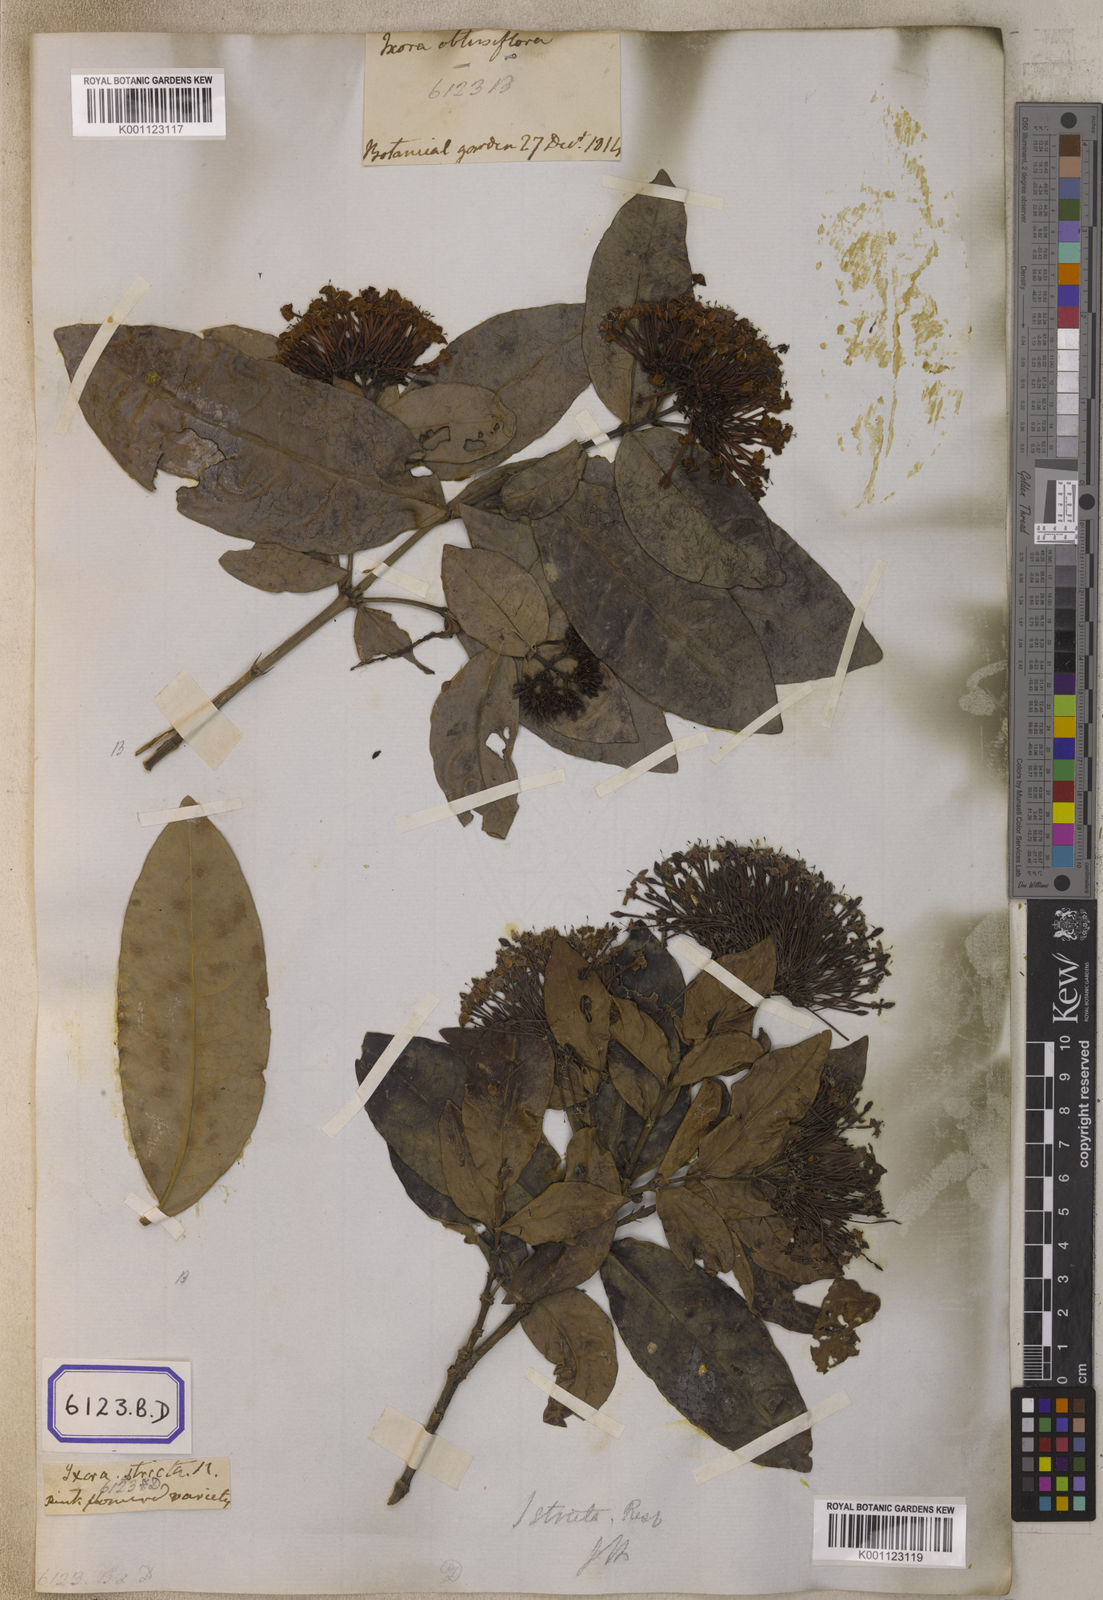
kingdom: Plantae
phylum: Tracheophyta
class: Magnoliopsida
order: Gentianales
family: Rubiaceae
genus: Ixora
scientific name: Ixora
